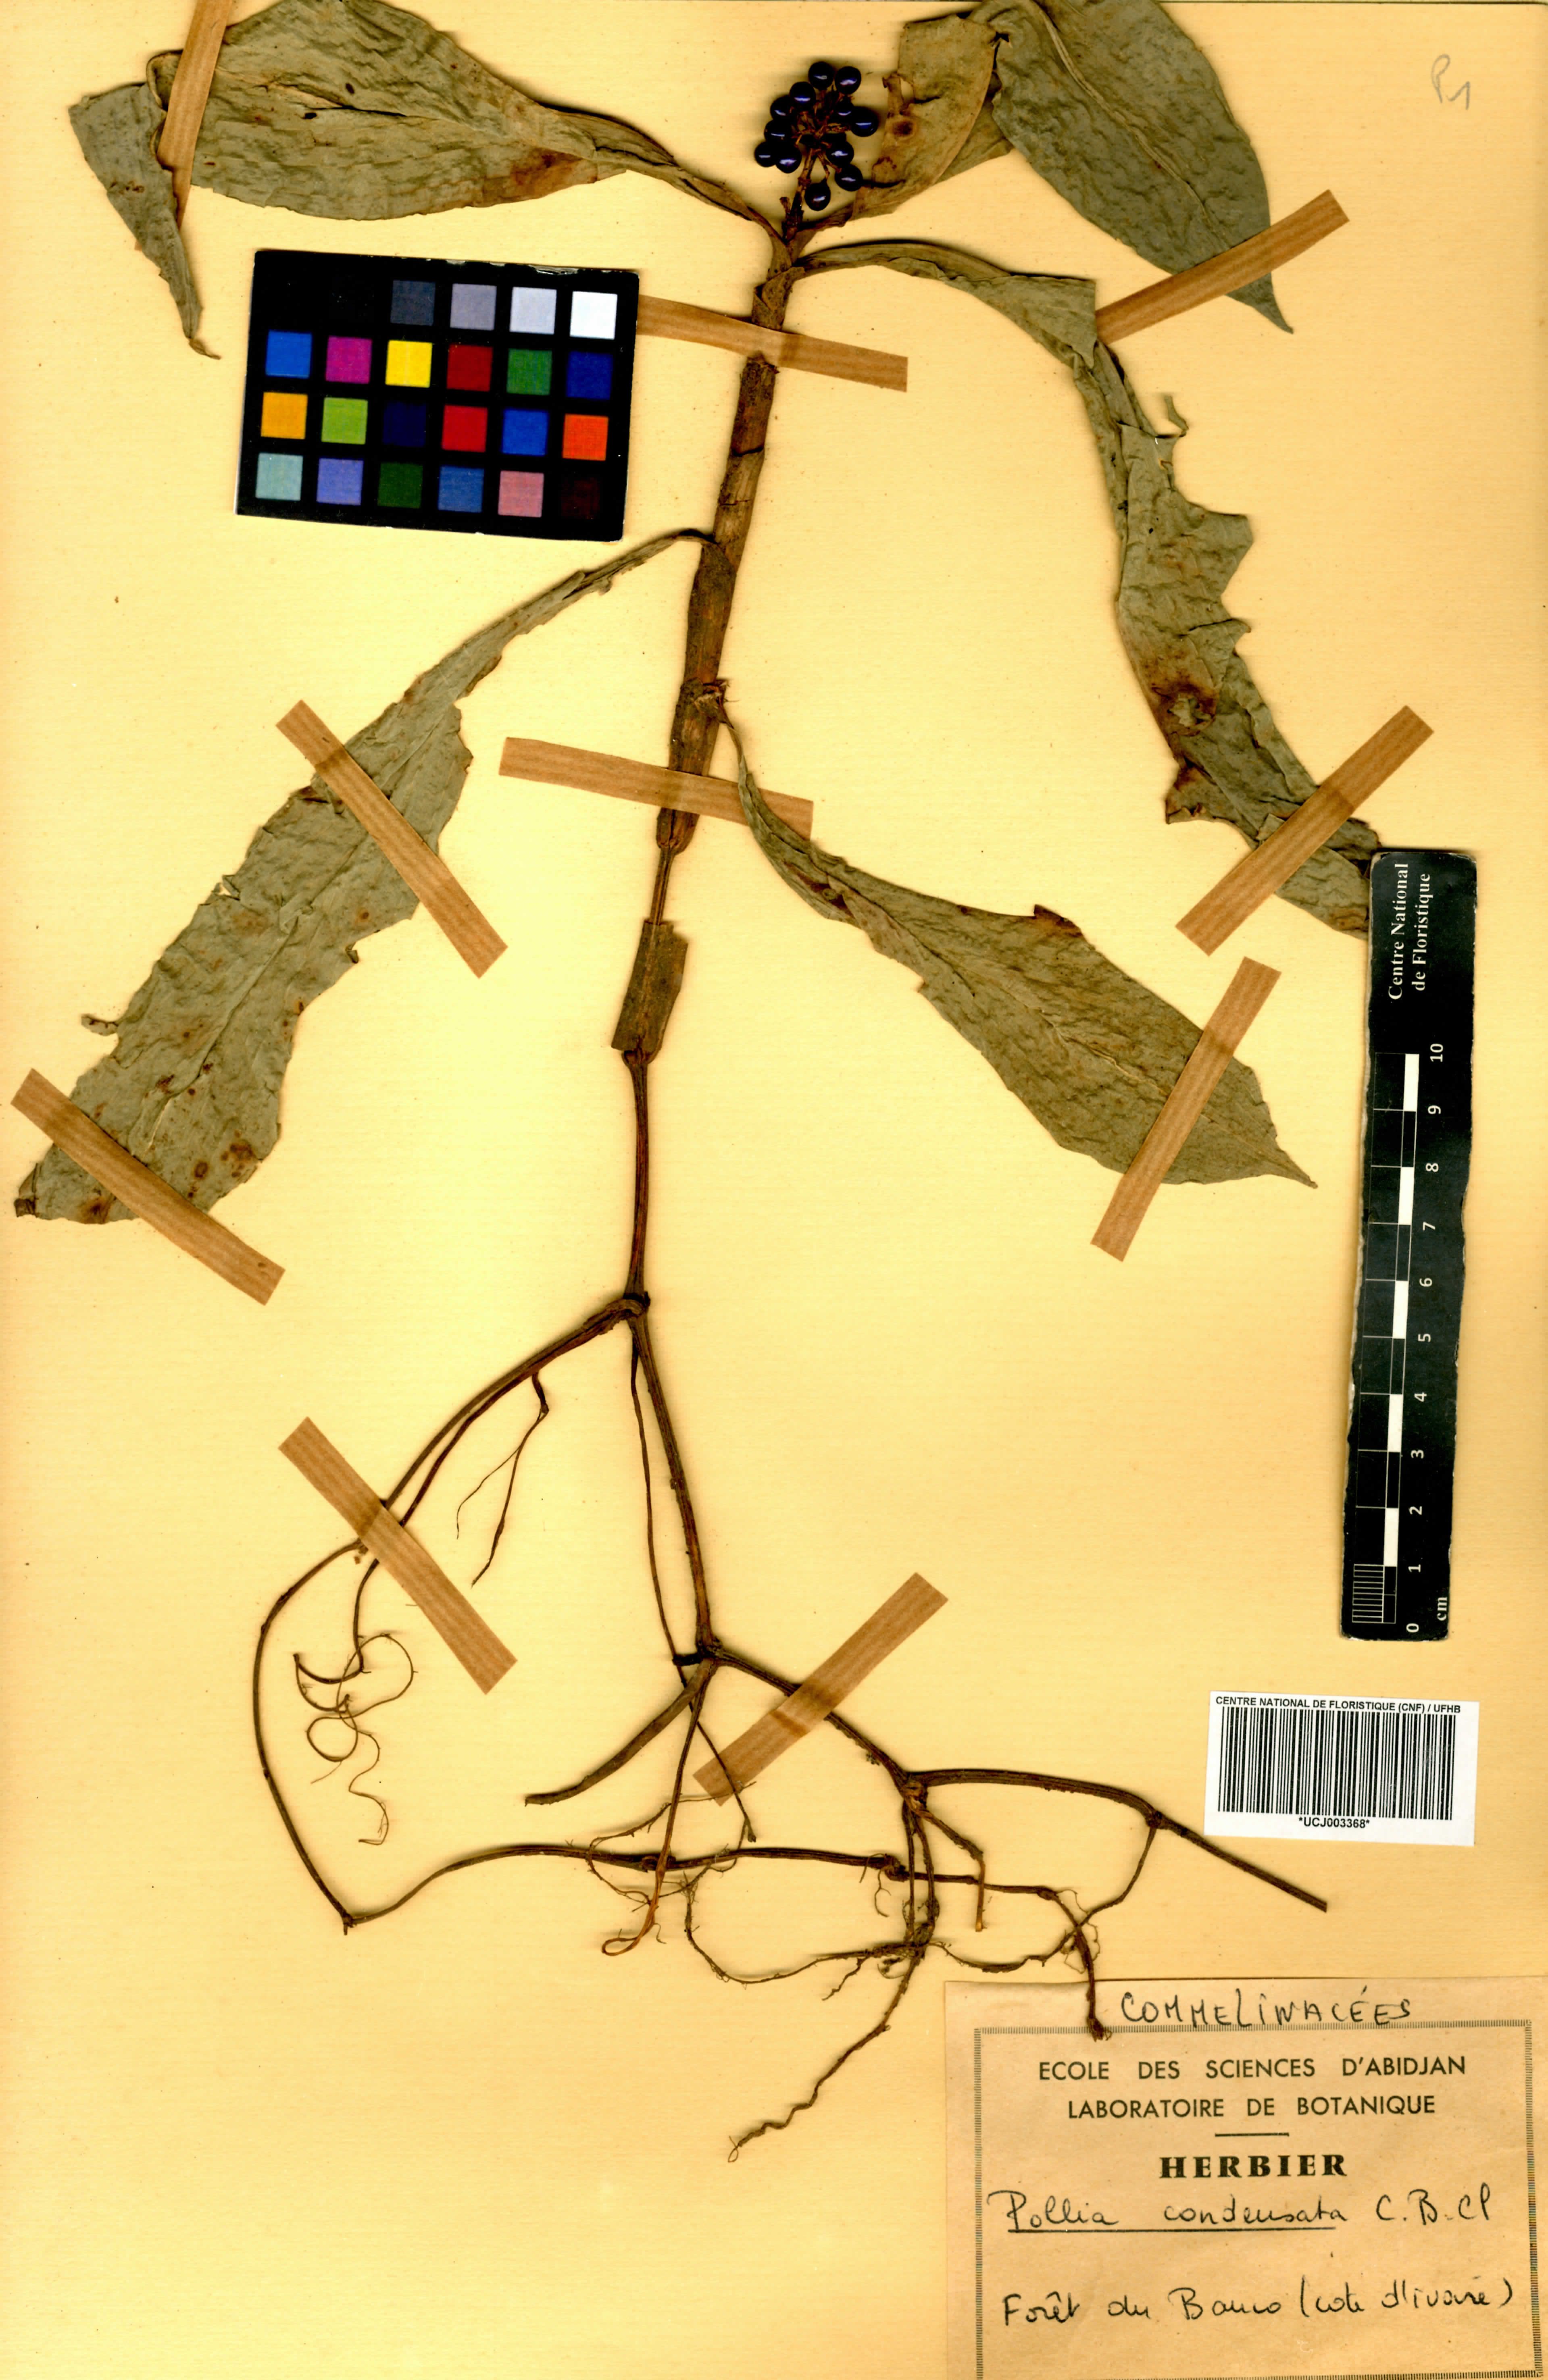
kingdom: Plantae
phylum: Tracheophyta
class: Liliopsida
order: Commelinales
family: Commelinaceae
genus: Pollia
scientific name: Pollia condensata
